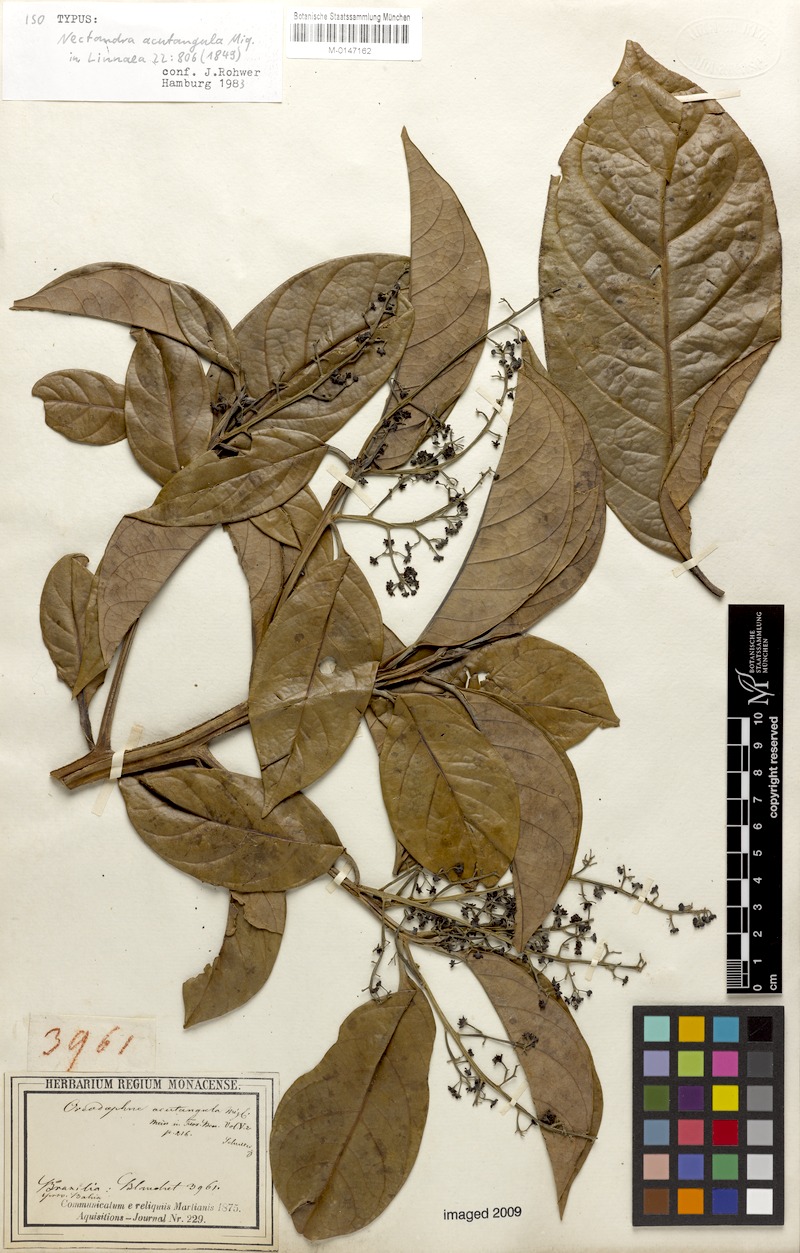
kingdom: Plantae
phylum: Tracheophyta
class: Magnoliopsida
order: Laurales
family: Lauraceae
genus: Ocotea
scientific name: Ocotea acutangula
